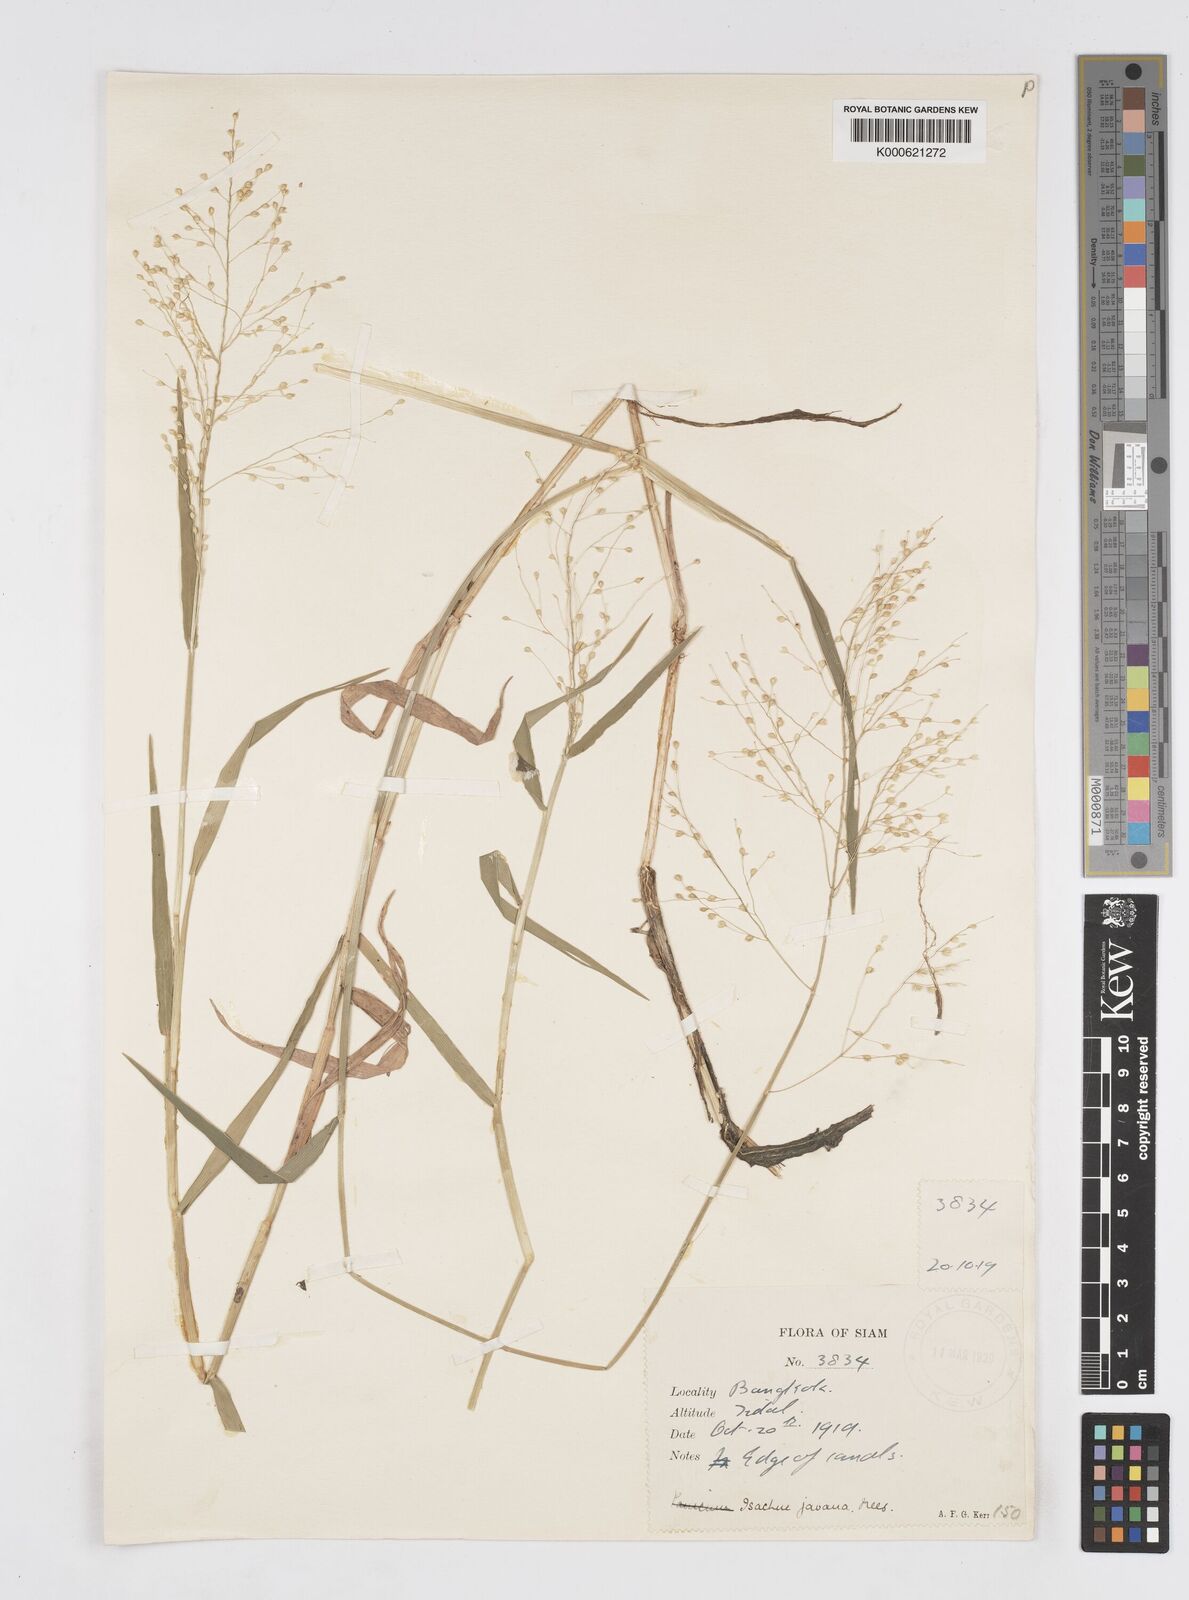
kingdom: Plantae
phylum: Tracheophyta
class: Liliopsida
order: Poales
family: Poaceae
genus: Isachne
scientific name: Isachne kinabaluensis
